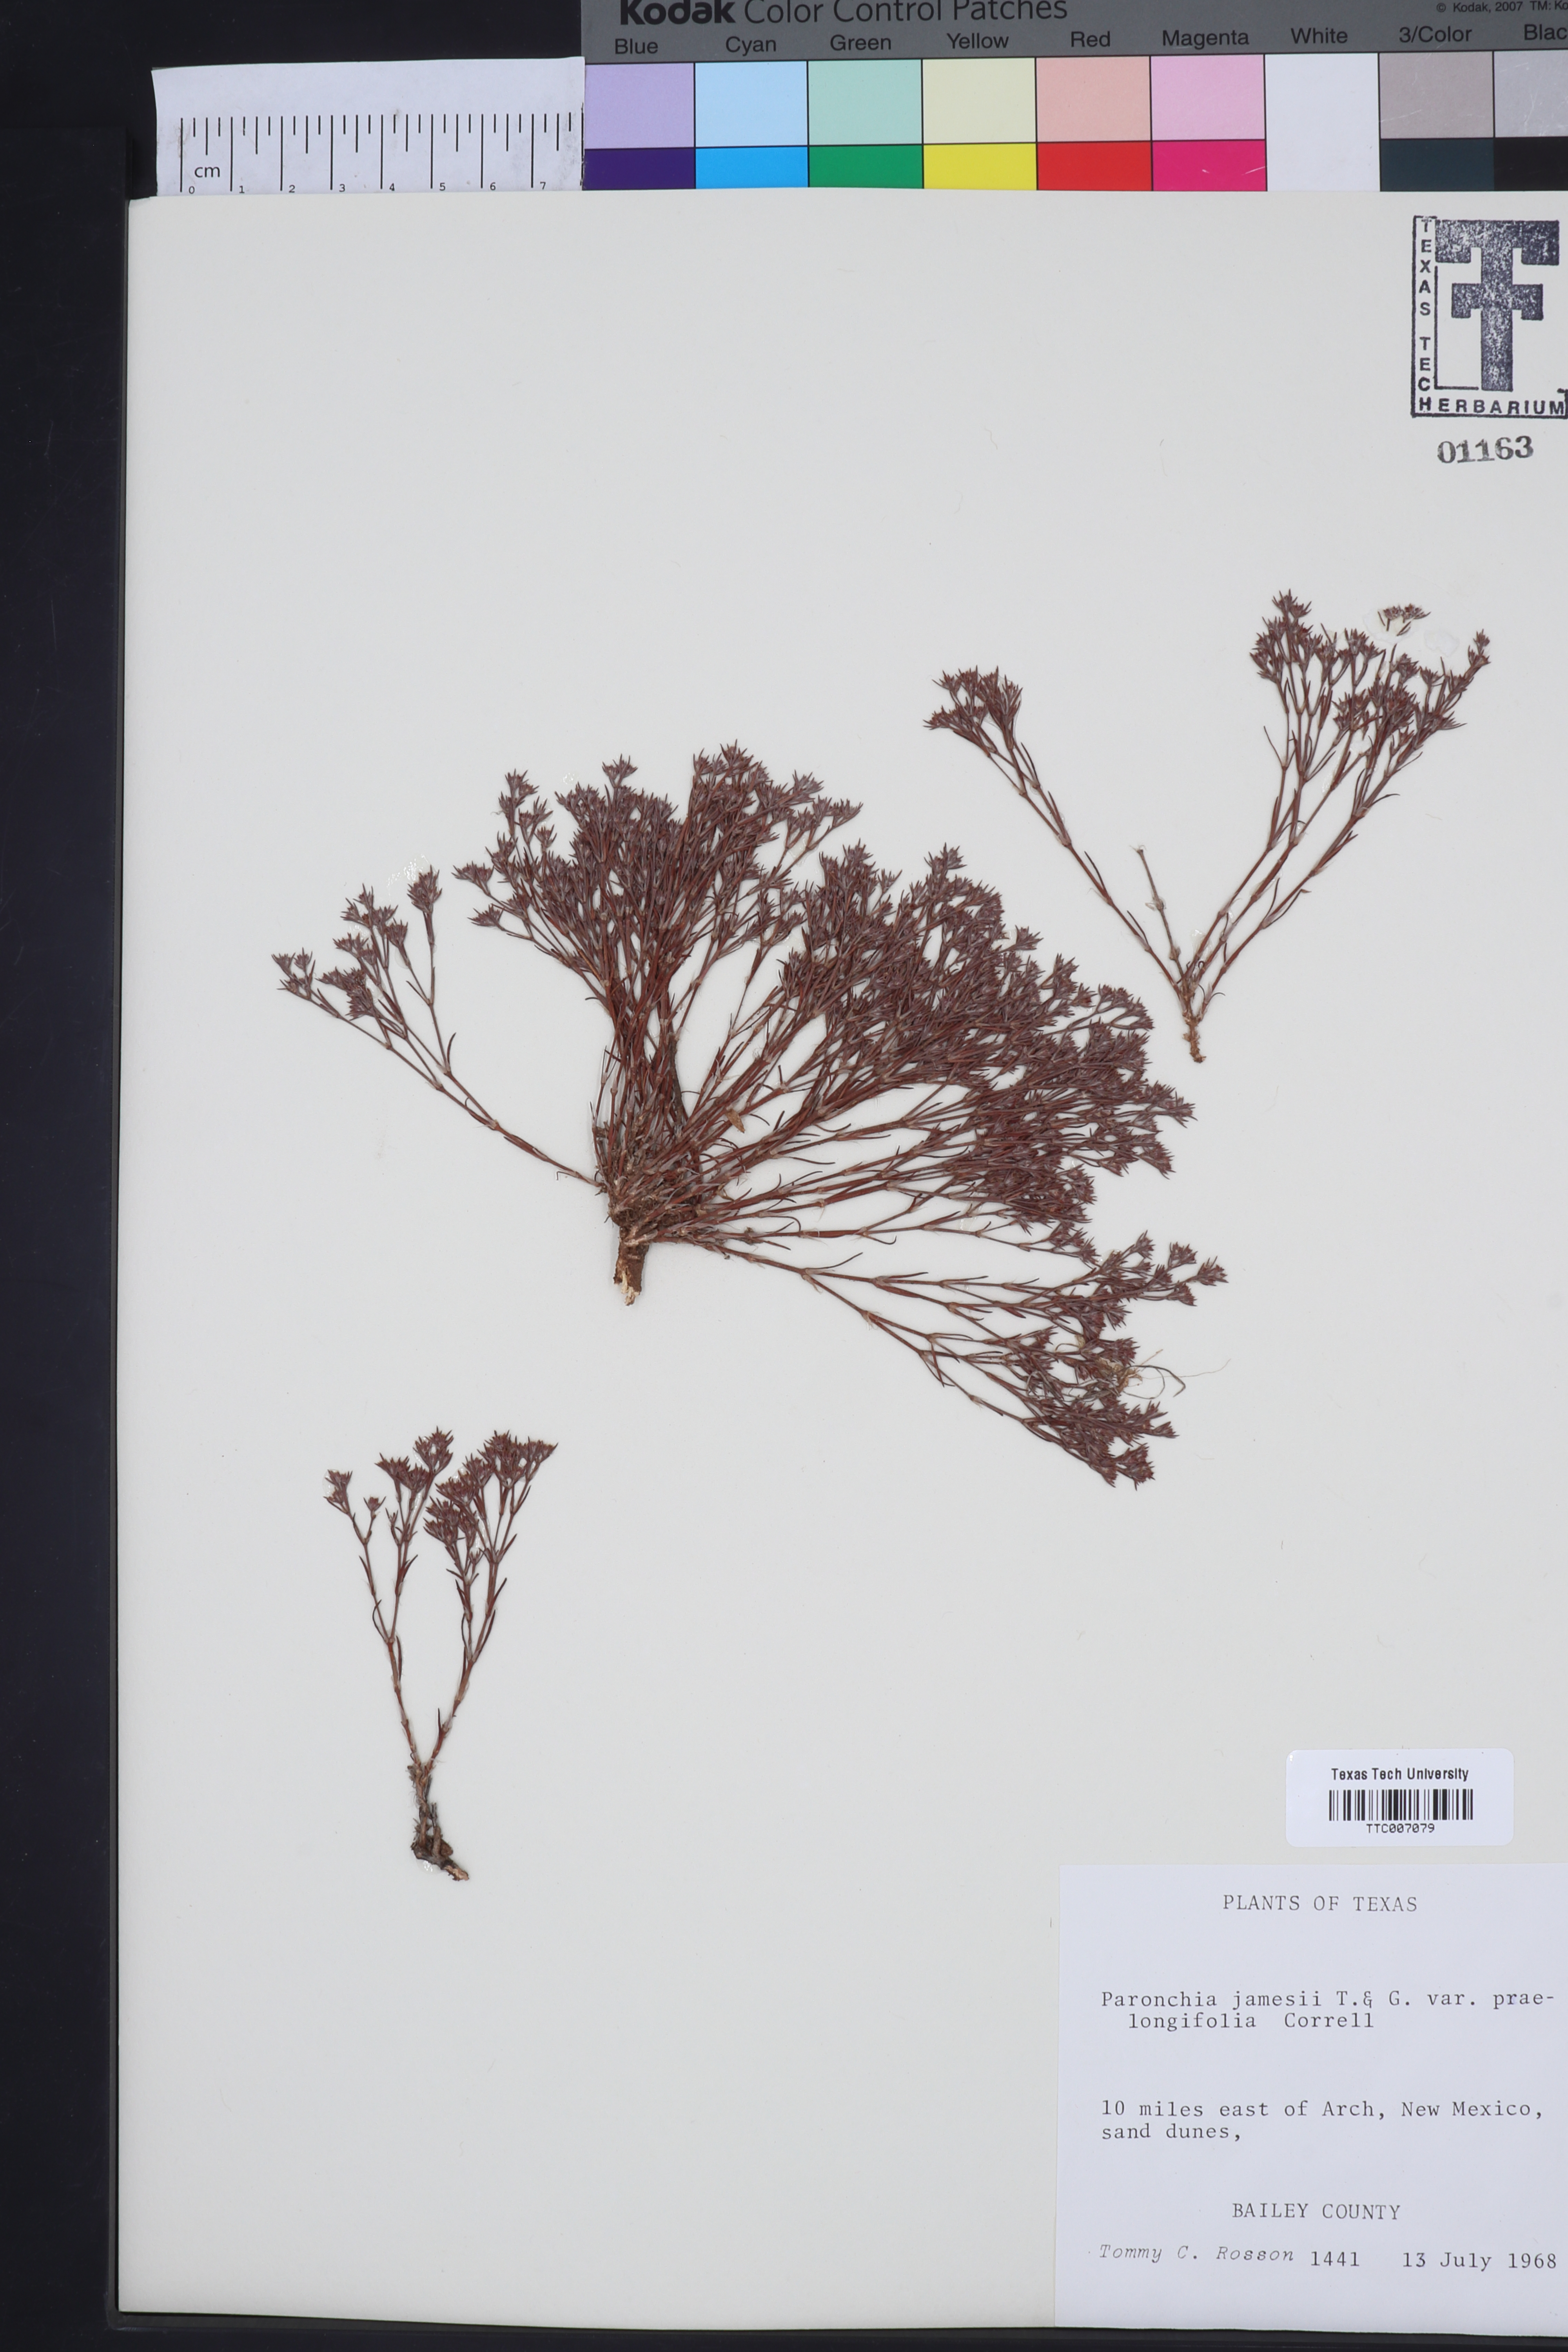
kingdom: Plantae
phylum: Tracheophyta
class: Magnoliopsida
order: Caryophyllales
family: Caryophyllaceae
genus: Paronychia
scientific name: Paronychia jamesii
